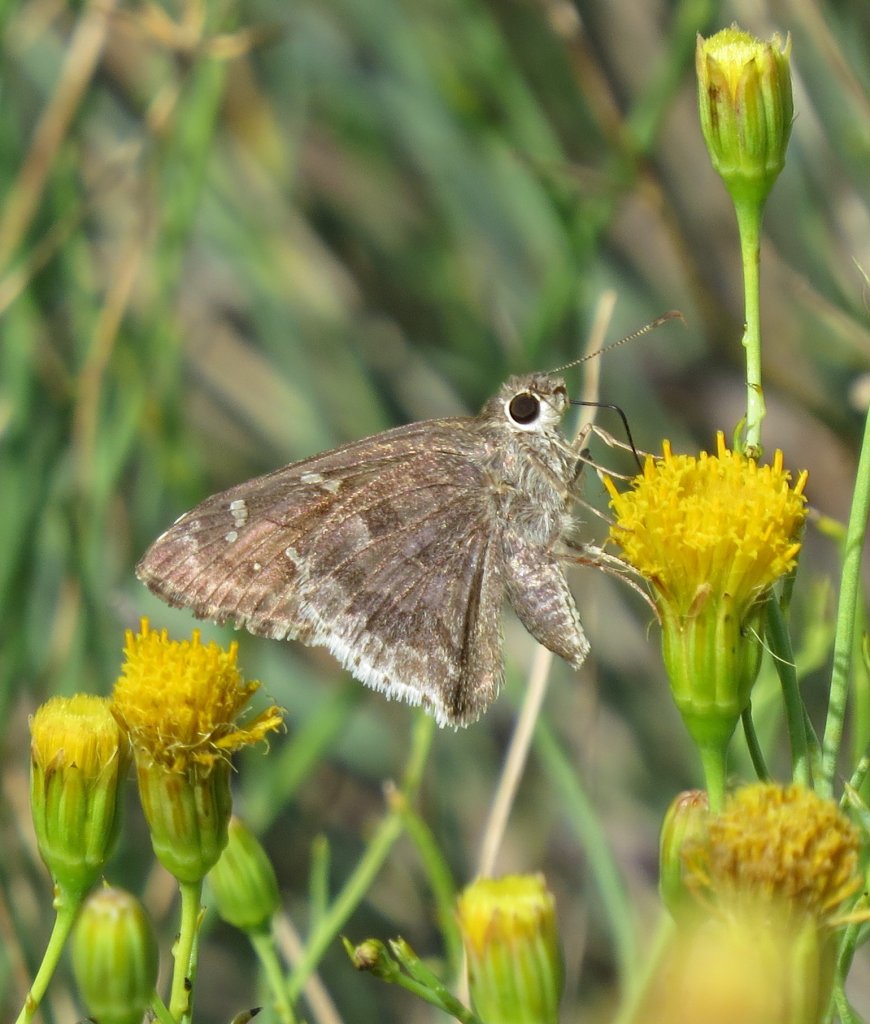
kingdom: Animalia
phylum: Arthropoda
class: Insecta
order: Lepidoptera
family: Hesperiidae
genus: Cogia
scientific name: Cogia hippalus
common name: Acacia Skipper
